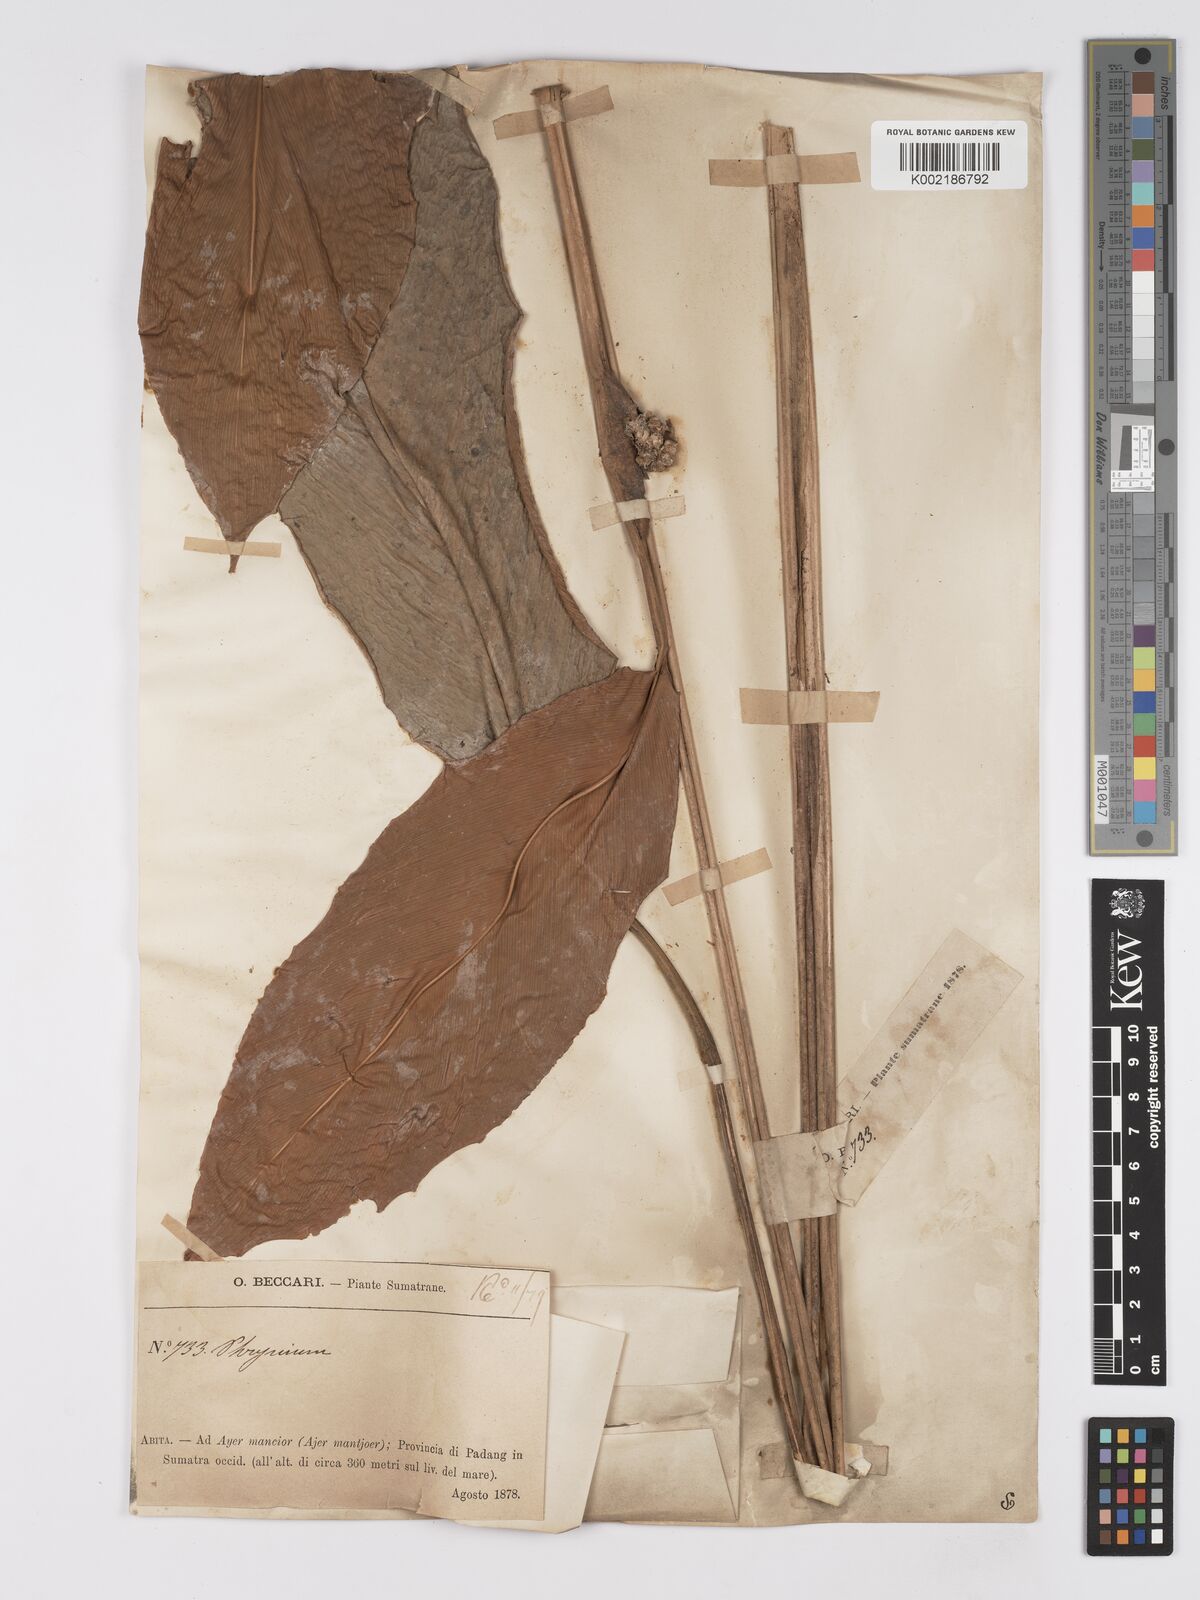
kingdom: Plantae
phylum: Tracheophyta
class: Liliopsida
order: Zingiberales
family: Marantaceae
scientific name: Marantaceae
